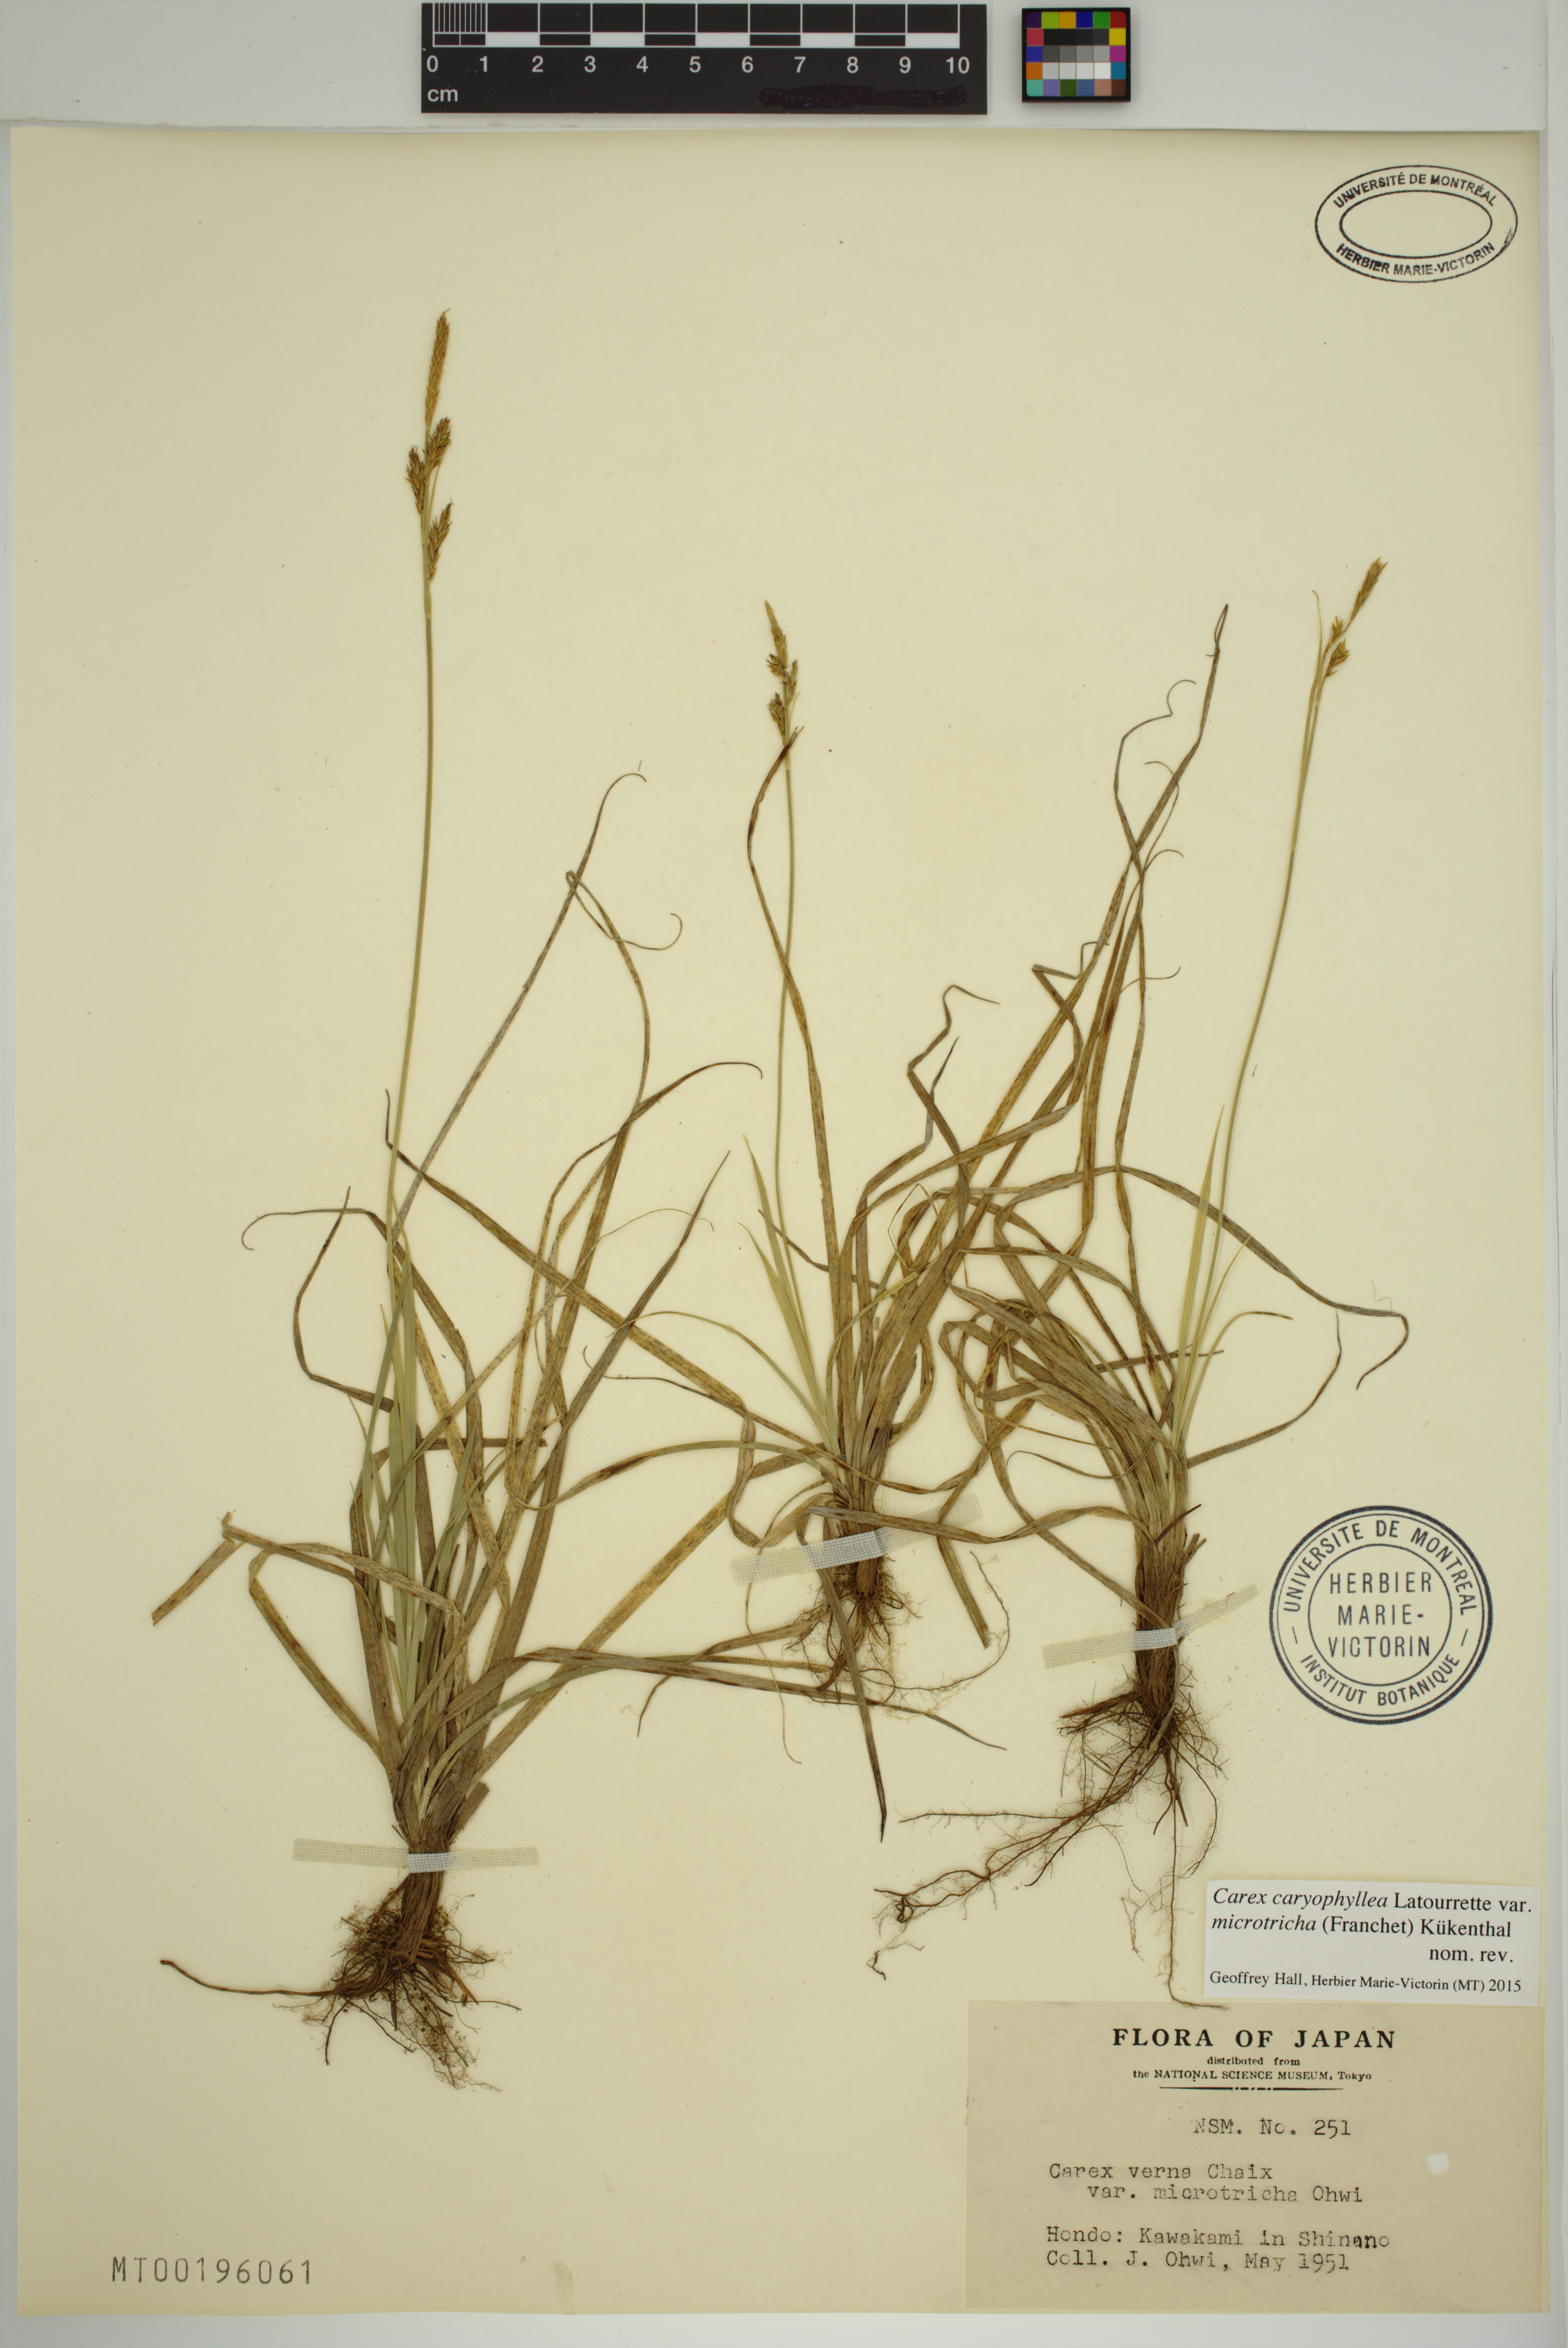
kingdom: Plantae
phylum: Tracheophyta
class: Liliopsida
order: Poales
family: Cyperaceae
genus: Carex
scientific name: Carex caryophyllea
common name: Spring sedge
